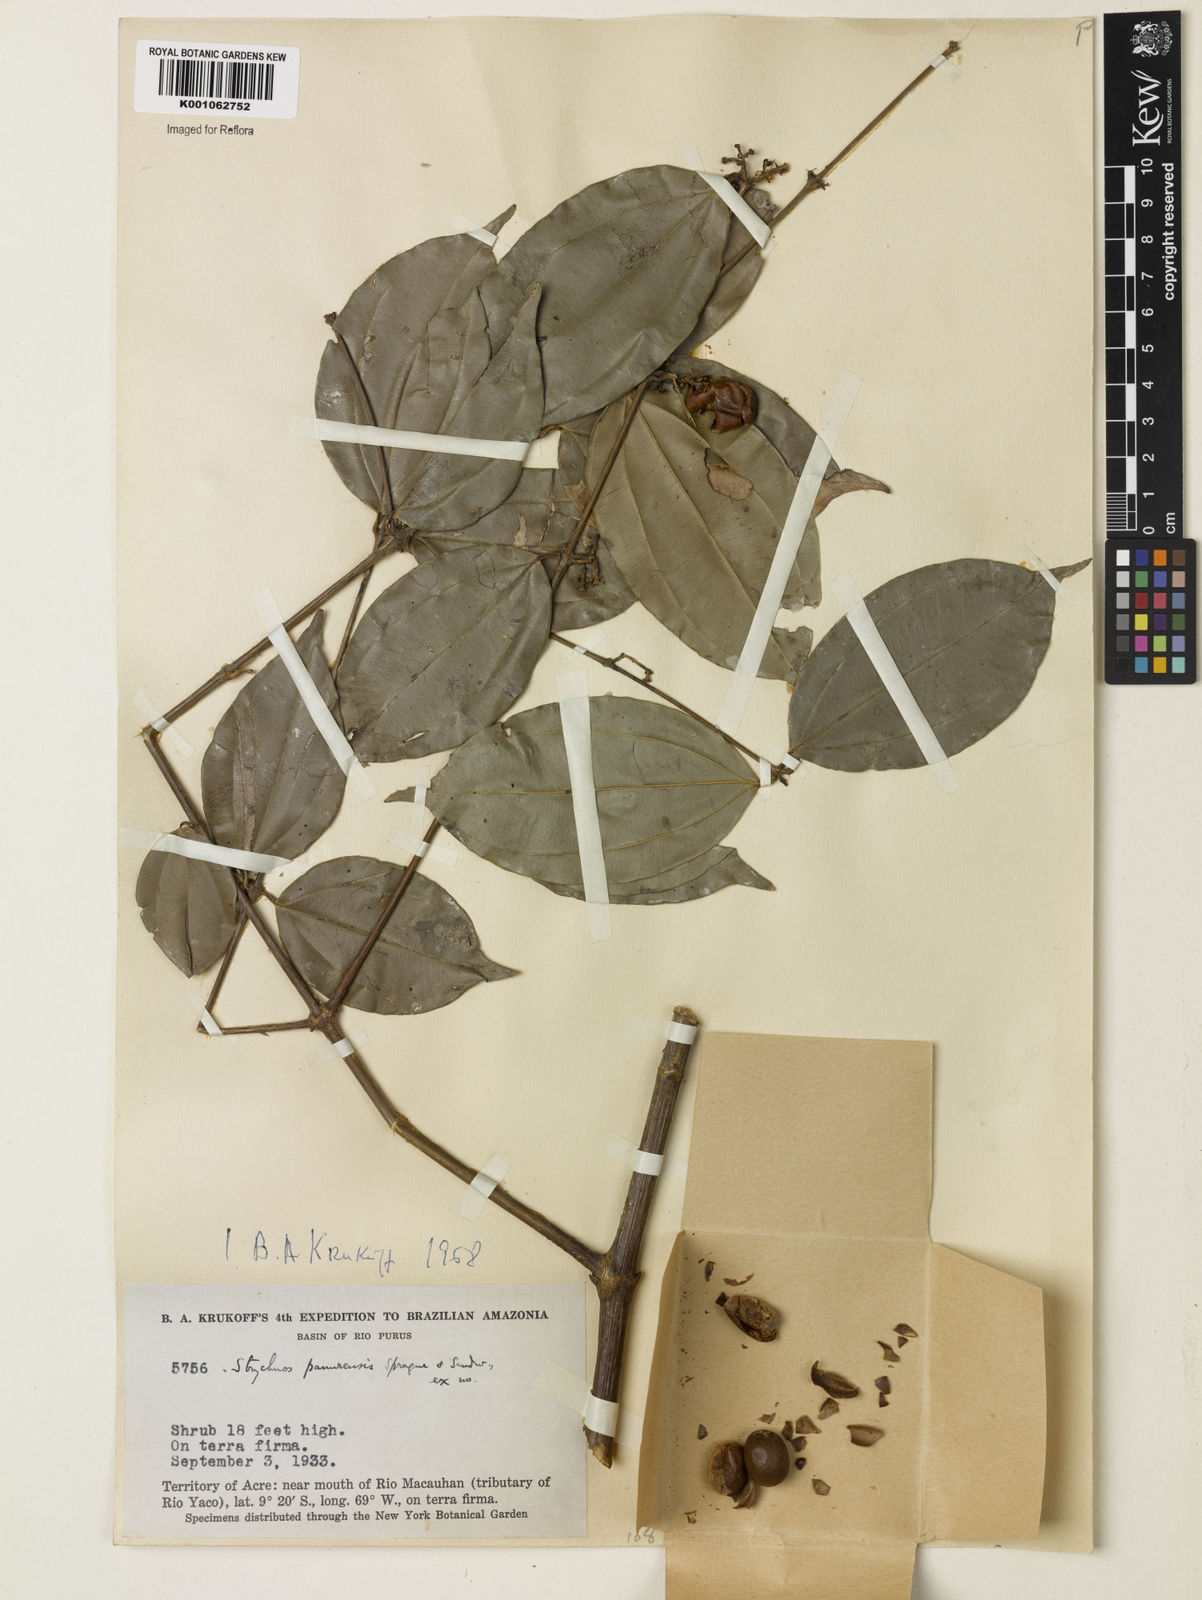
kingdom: Plantae
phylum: Tracheophyta
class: Magnoliopsida
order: Gentianales
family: Loganiaceae
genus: Strychnos
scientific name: Strychnos gubleri
